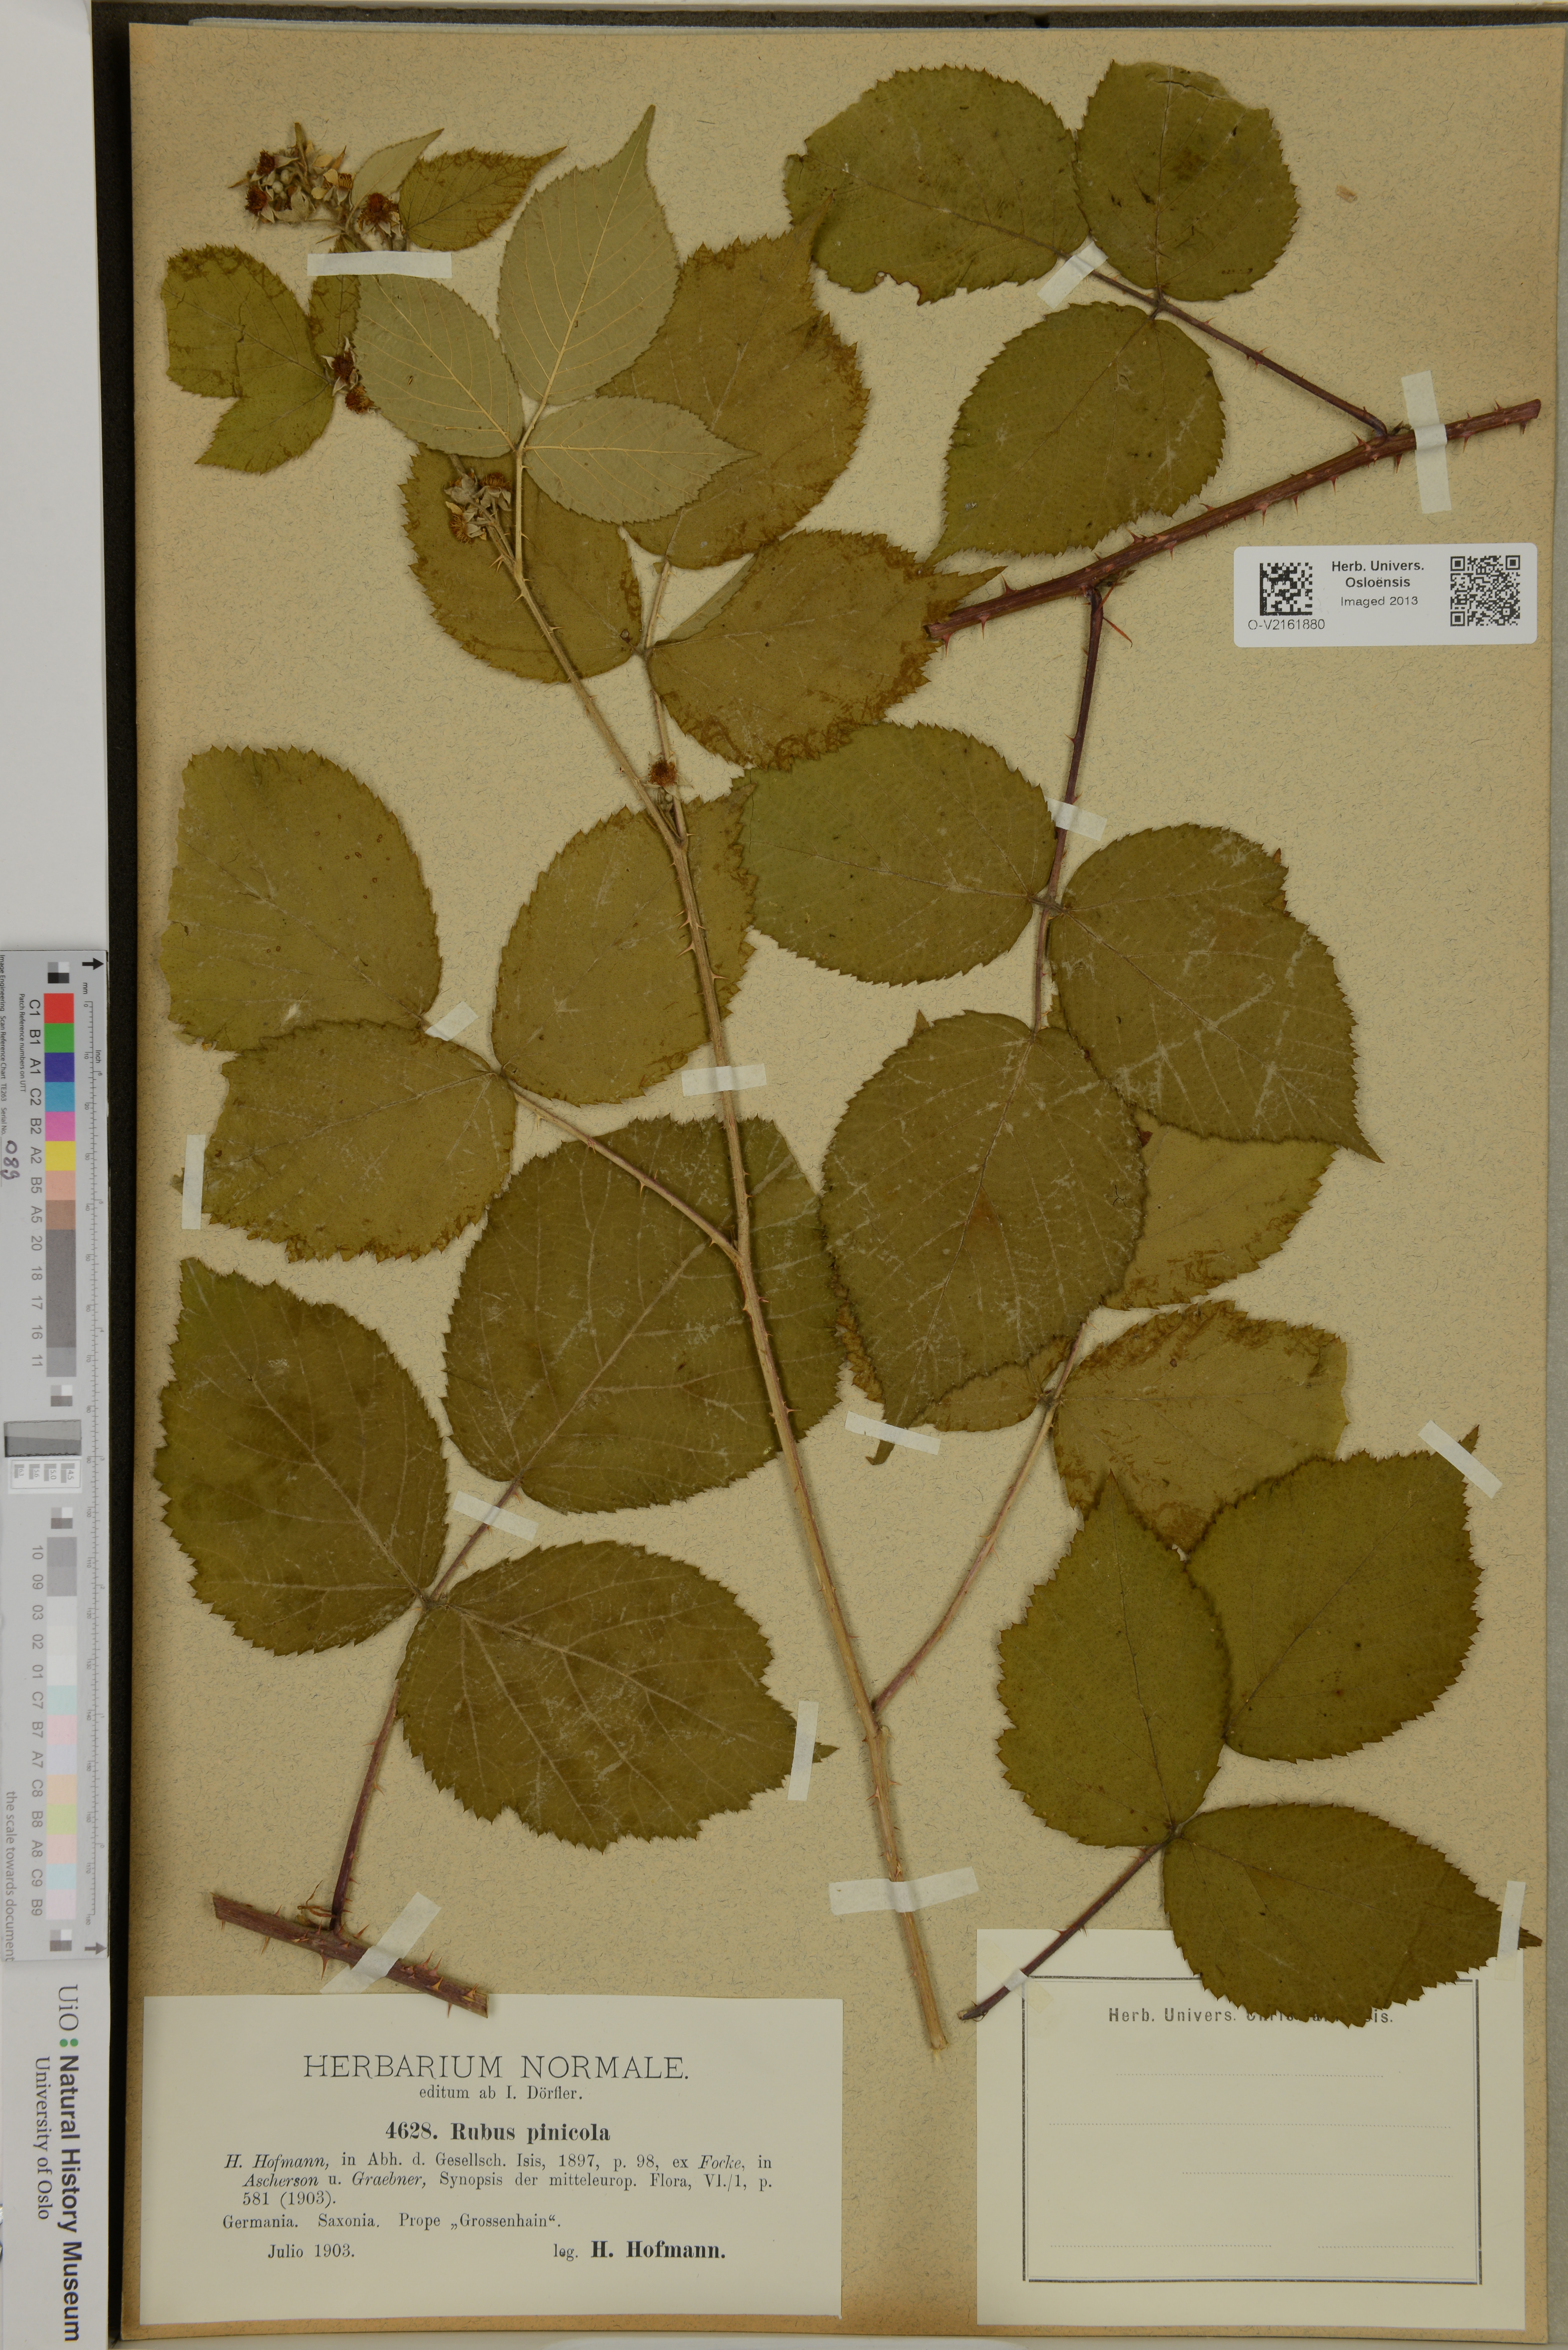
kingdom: Plantae
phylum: Tracheophyta
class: Magnoliopsida
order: Rosales
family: Rosaceae
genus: Rubus
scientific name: Rubus pinicola
